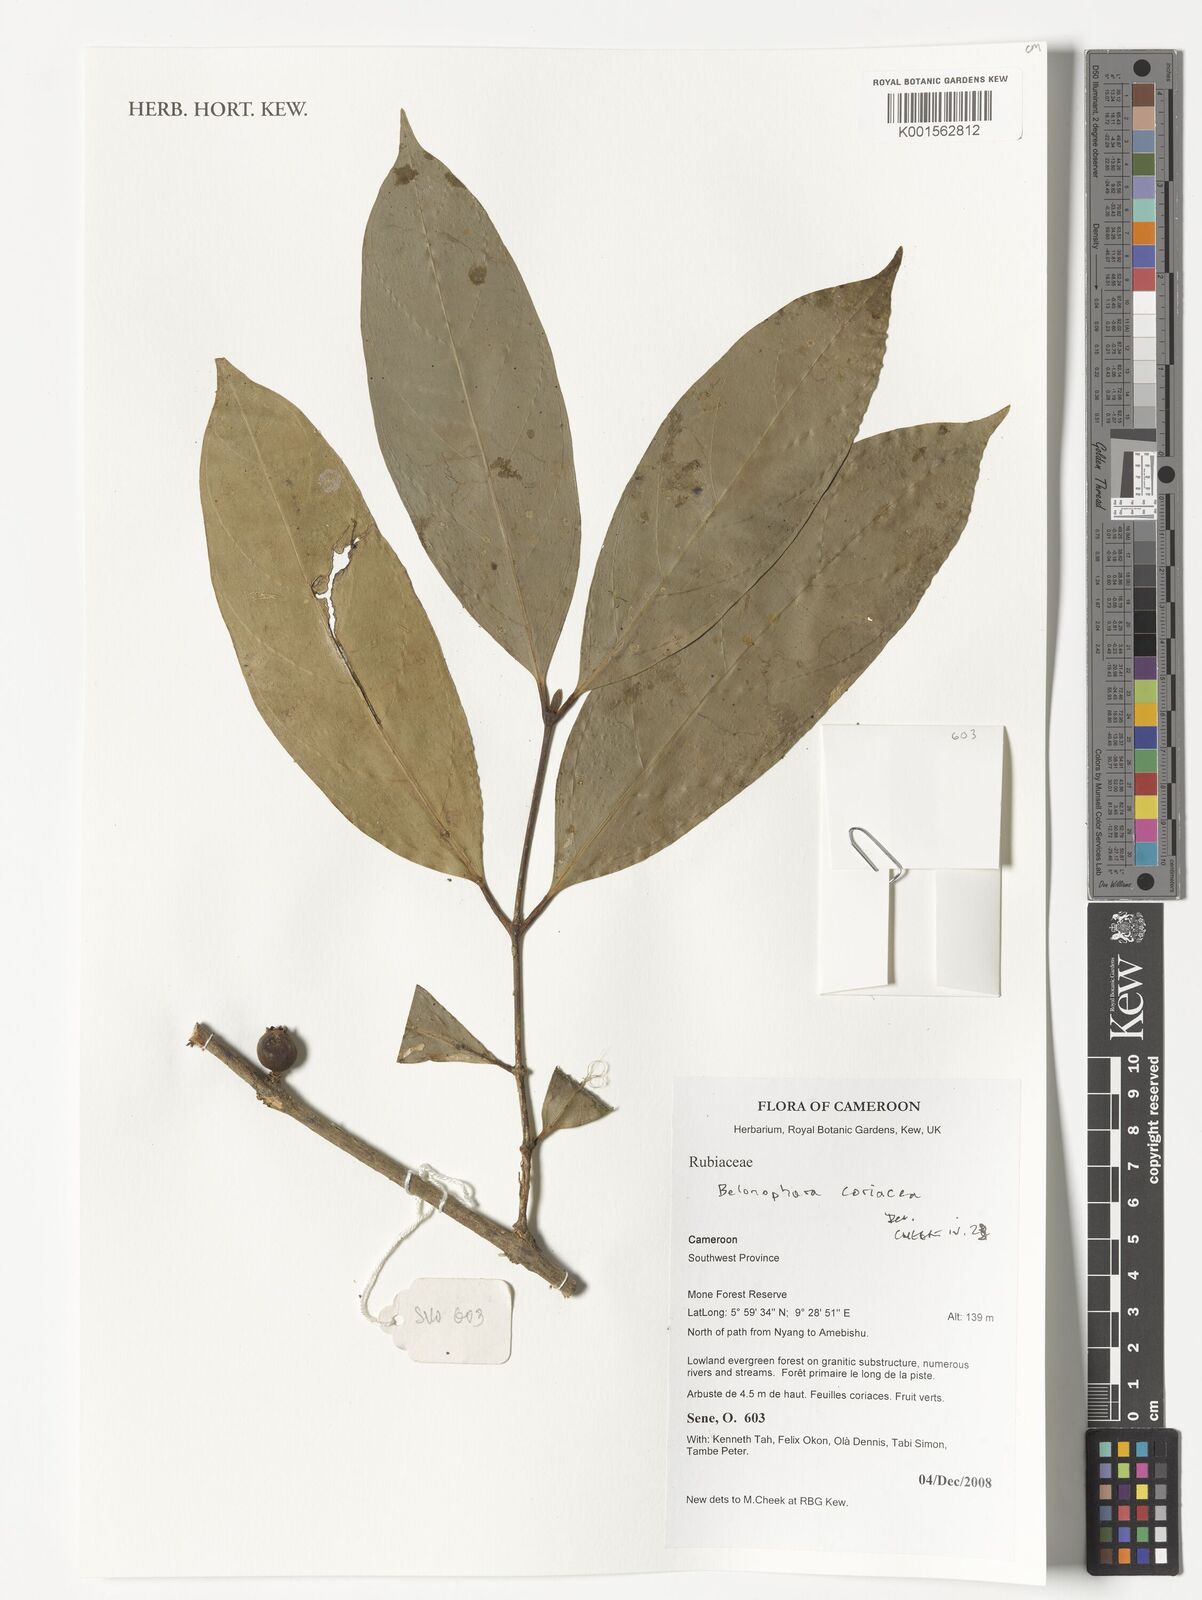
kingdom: Plantae
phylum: Tracheophyta
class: Magnoliopsida
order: Gentianales
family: Rubiaceae
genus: Belonophora
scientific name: Belonophora coriacea
